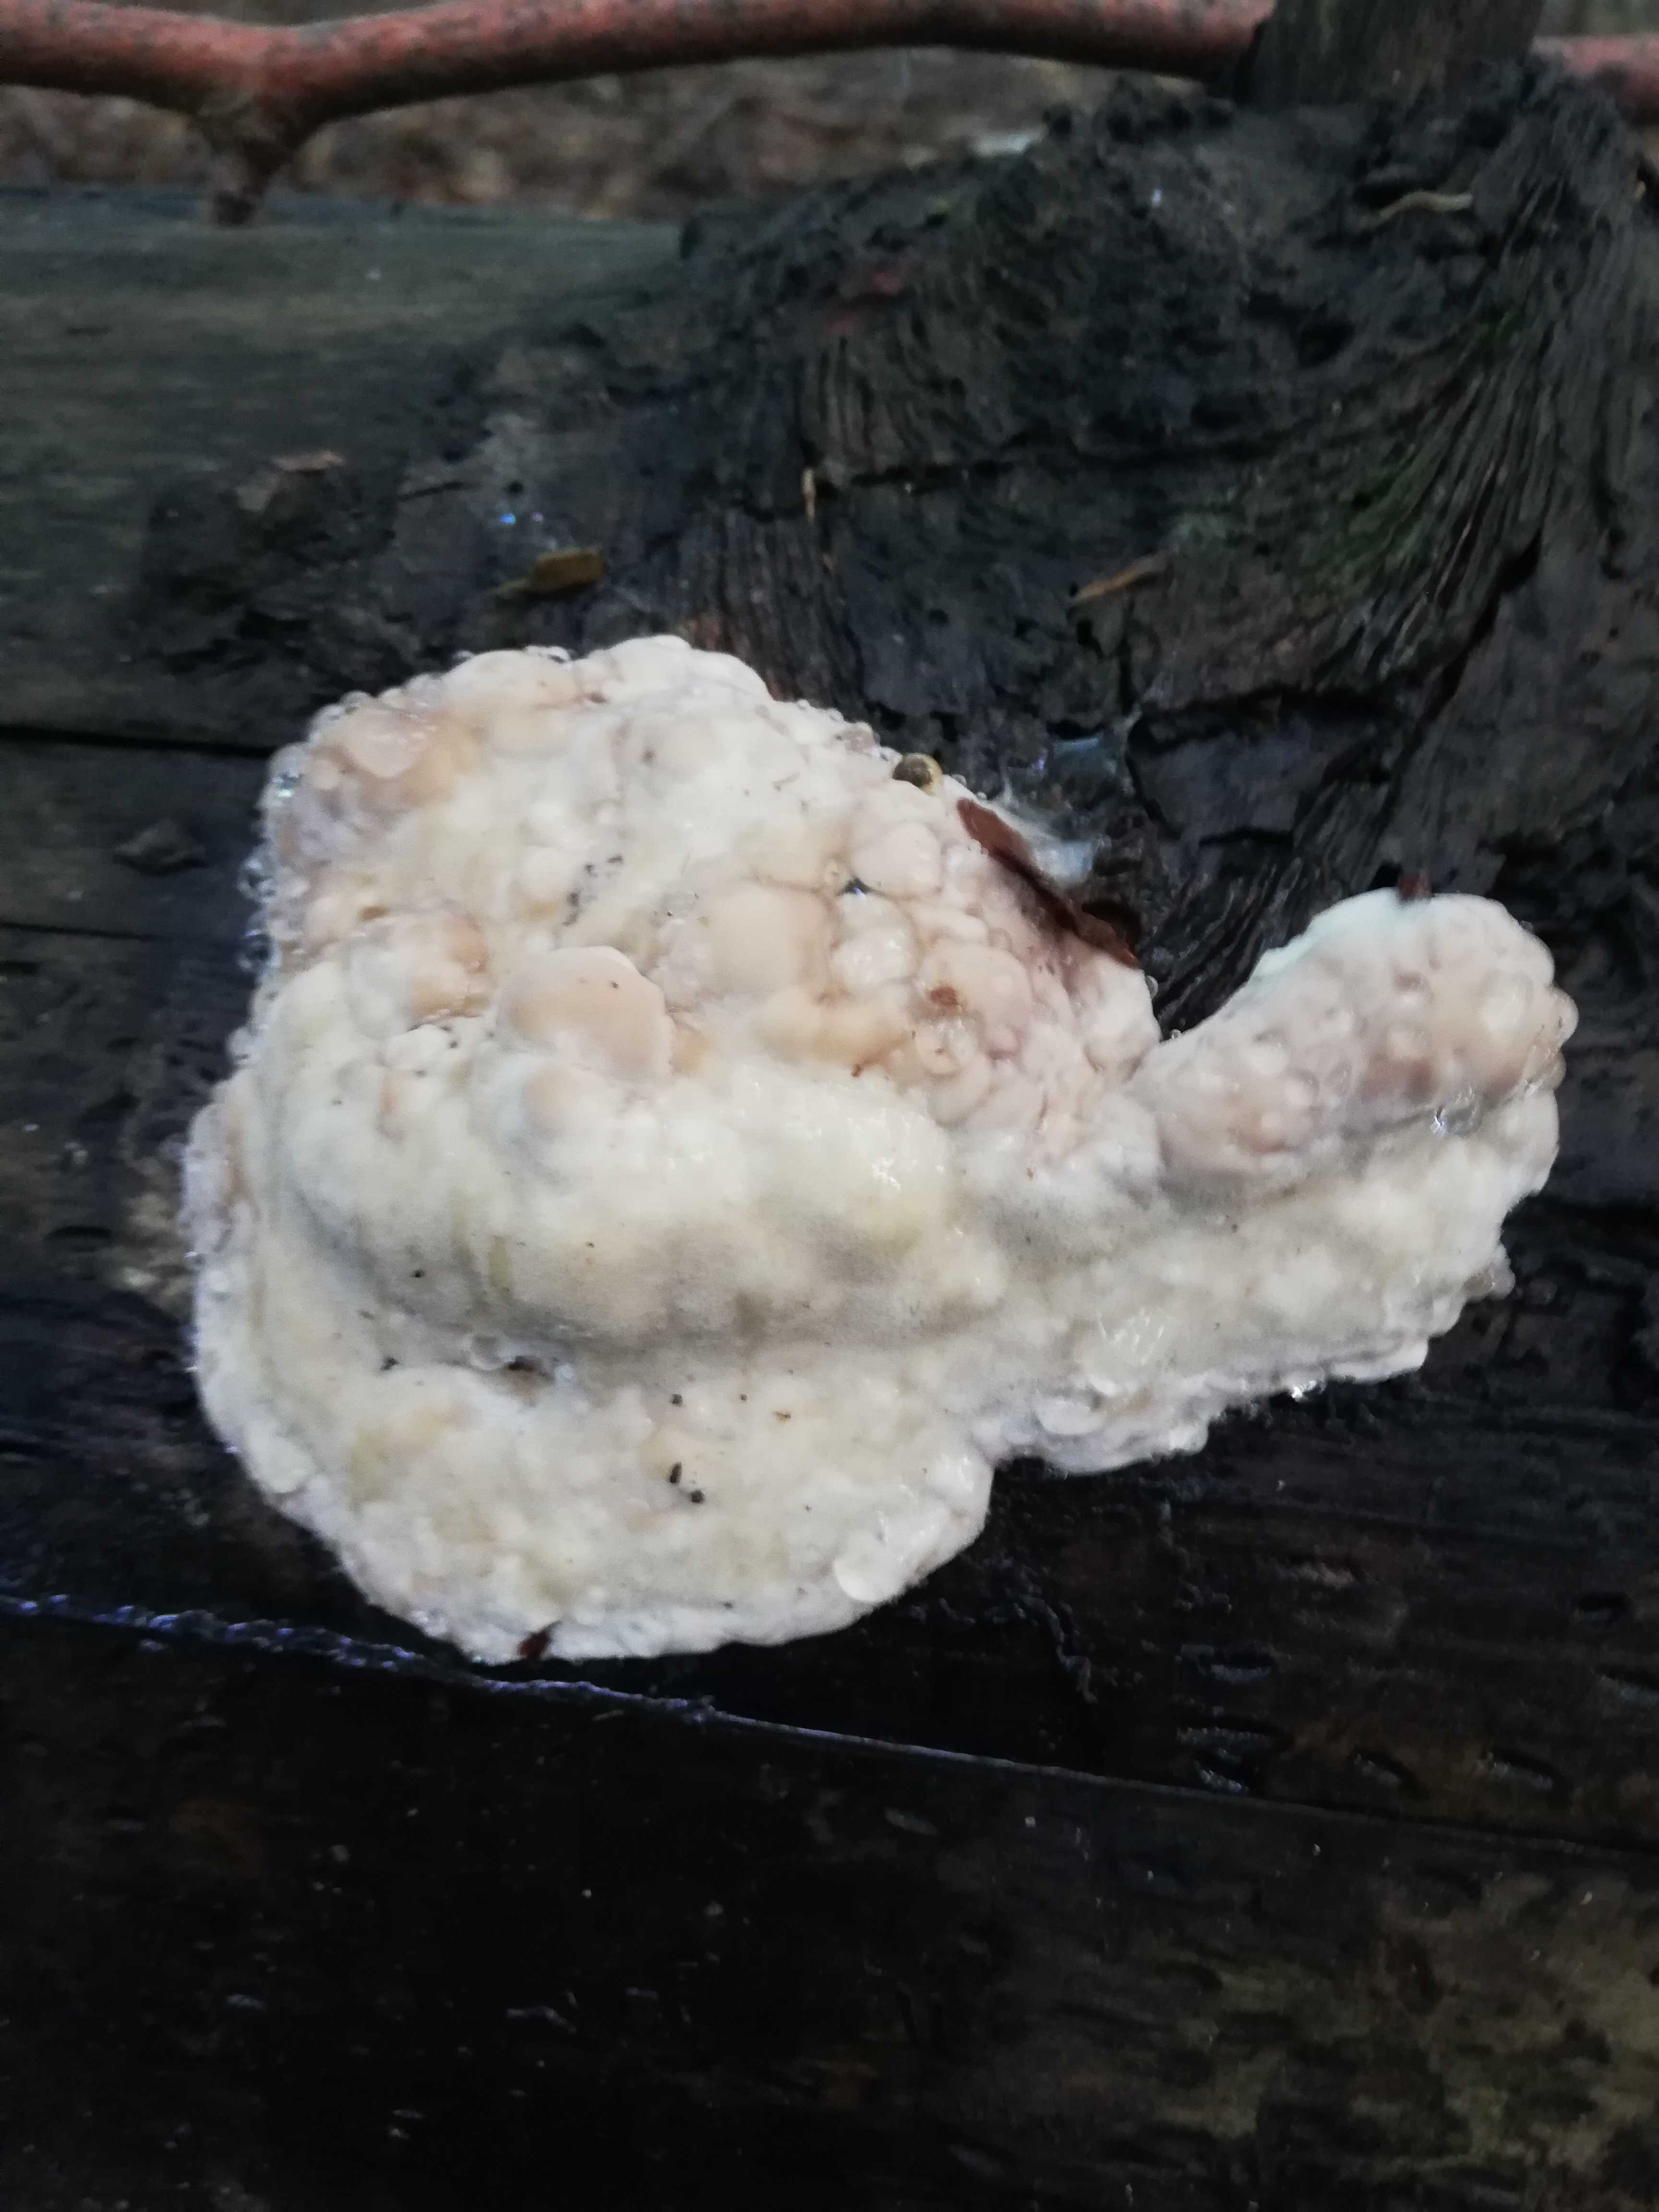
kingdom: Fungi
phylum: Basidiomycota
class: Agaricomycetes
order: Polyporales
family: Fomitopsidaceae
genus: Fomitopsis
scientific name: Fomitopsis pinicola
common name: randbæltet hovporesvamp
